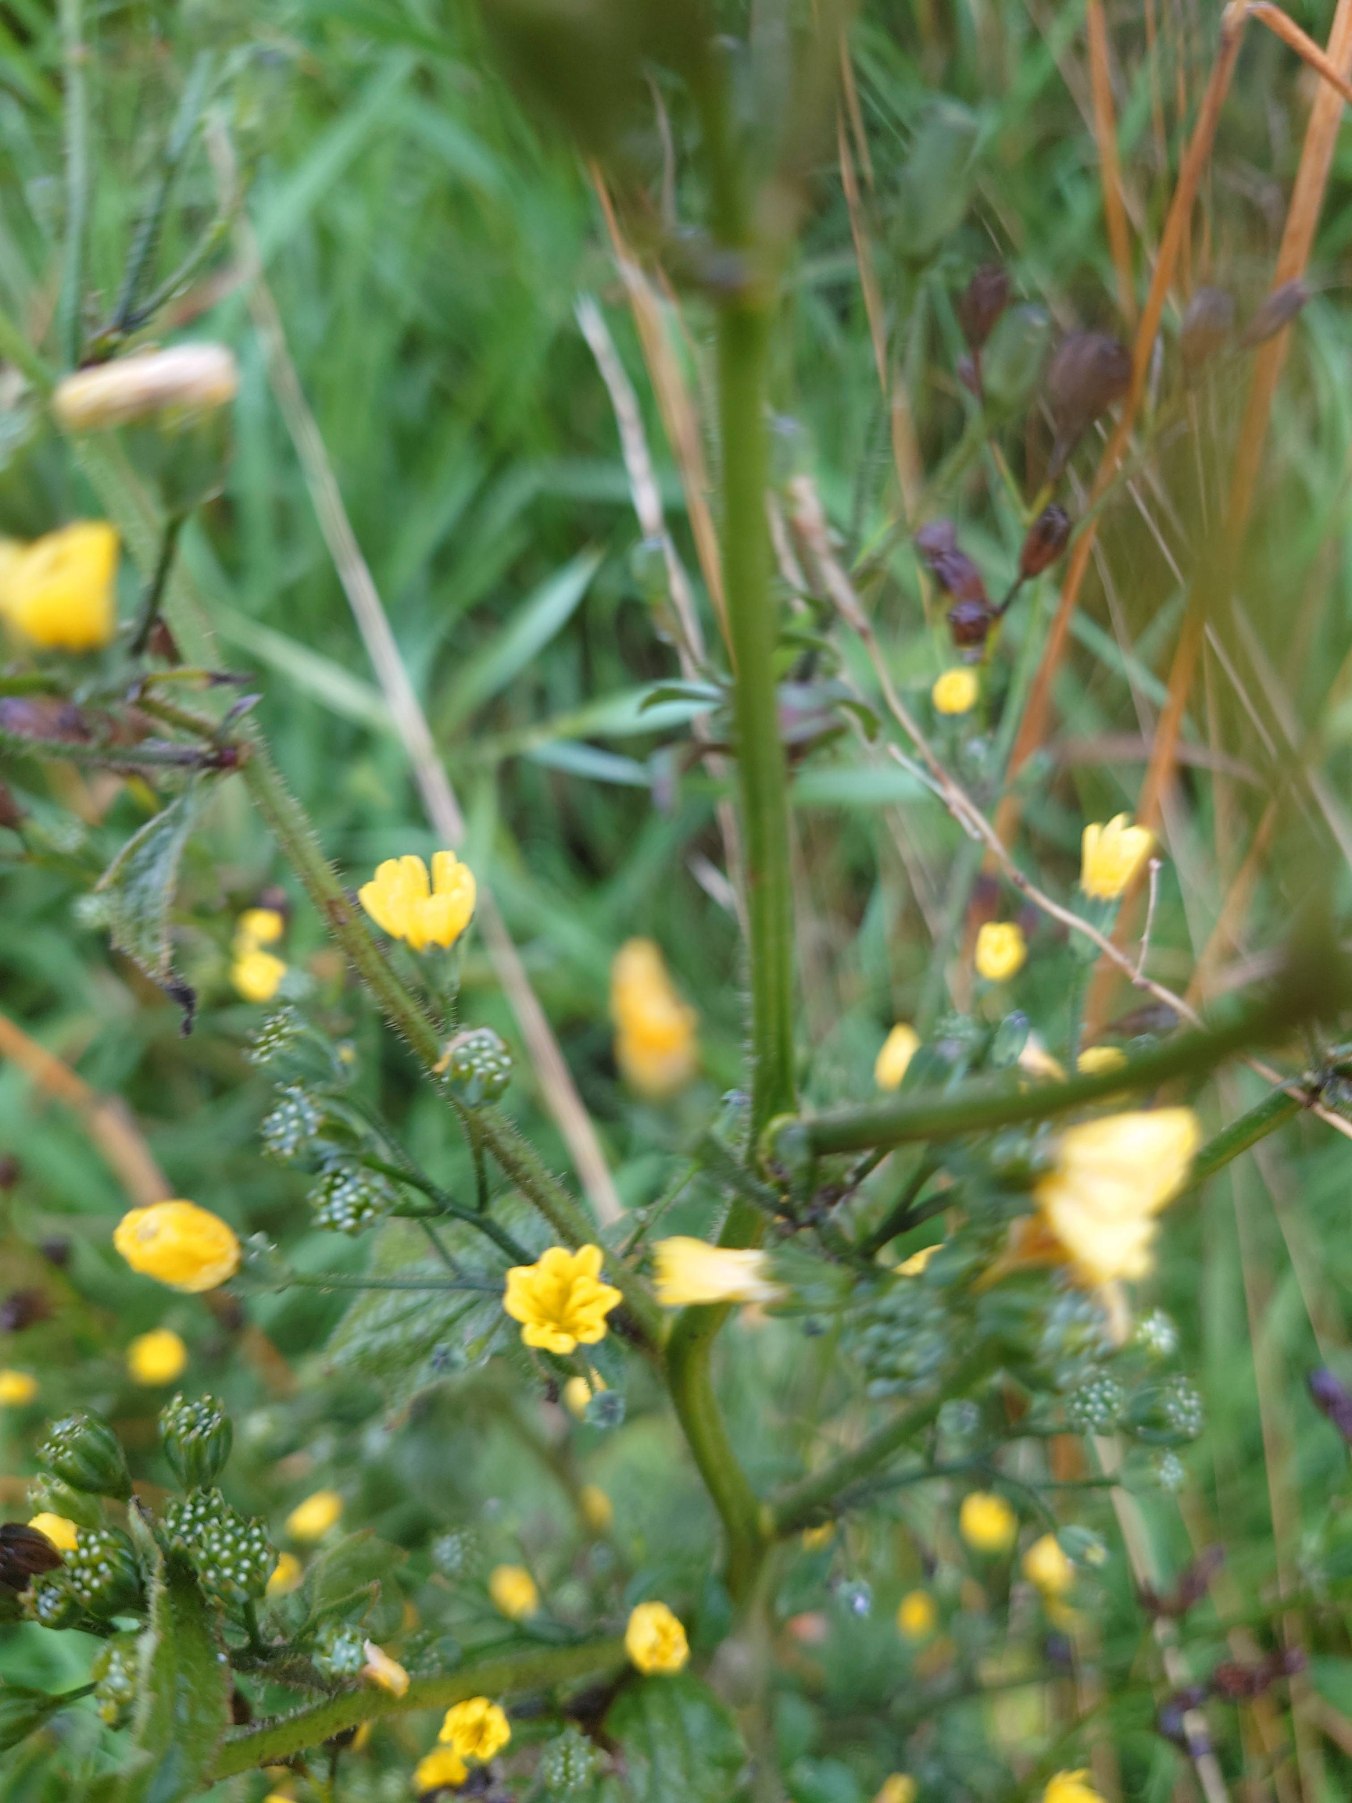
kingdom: Plantae
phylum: Tracheophyta
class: Magnoliopsida
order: Asterales
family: Asteraceae
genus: Lapsana
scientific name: Lapsana communis
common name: Haremad
